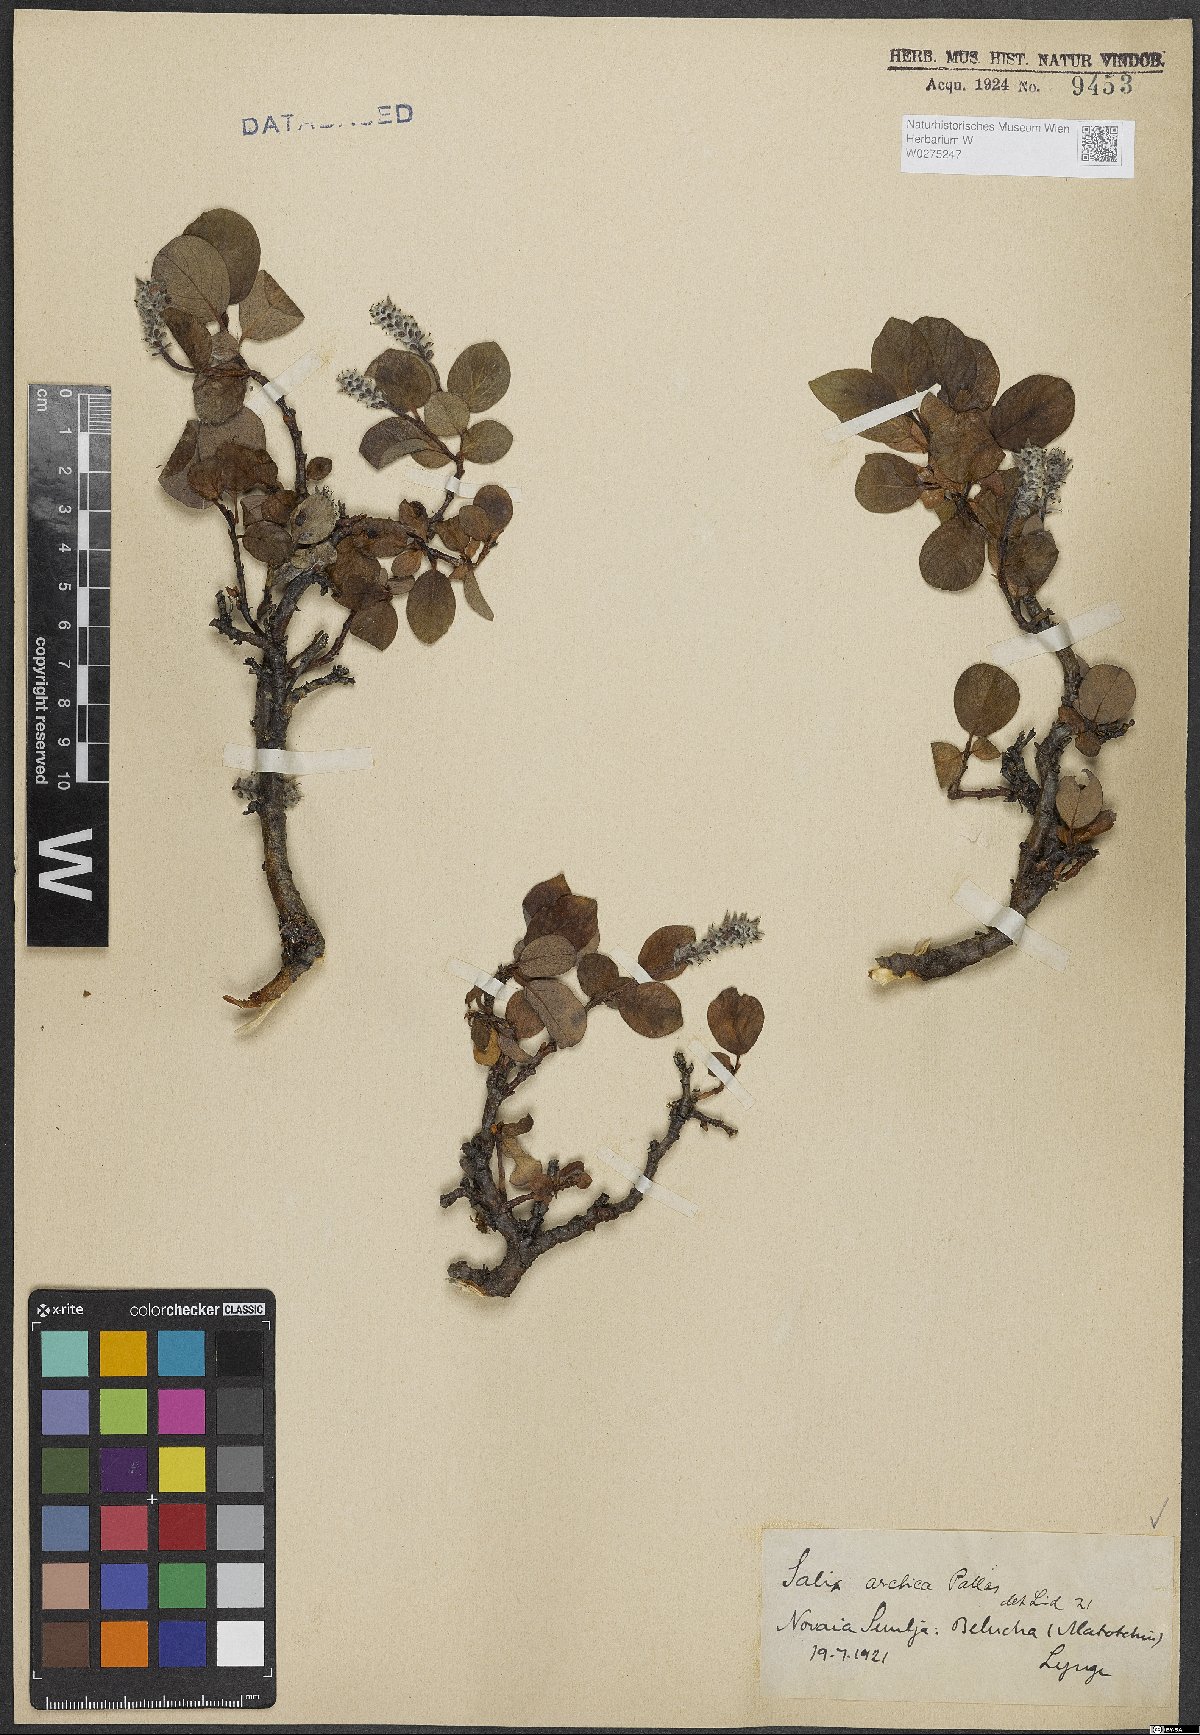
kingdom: Plantae
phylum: Tracheophyta
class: Magnoliopsida
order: Malpighiales
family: Salicaceae
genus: Salix
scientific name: Salix arctica
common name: Arctic willow
